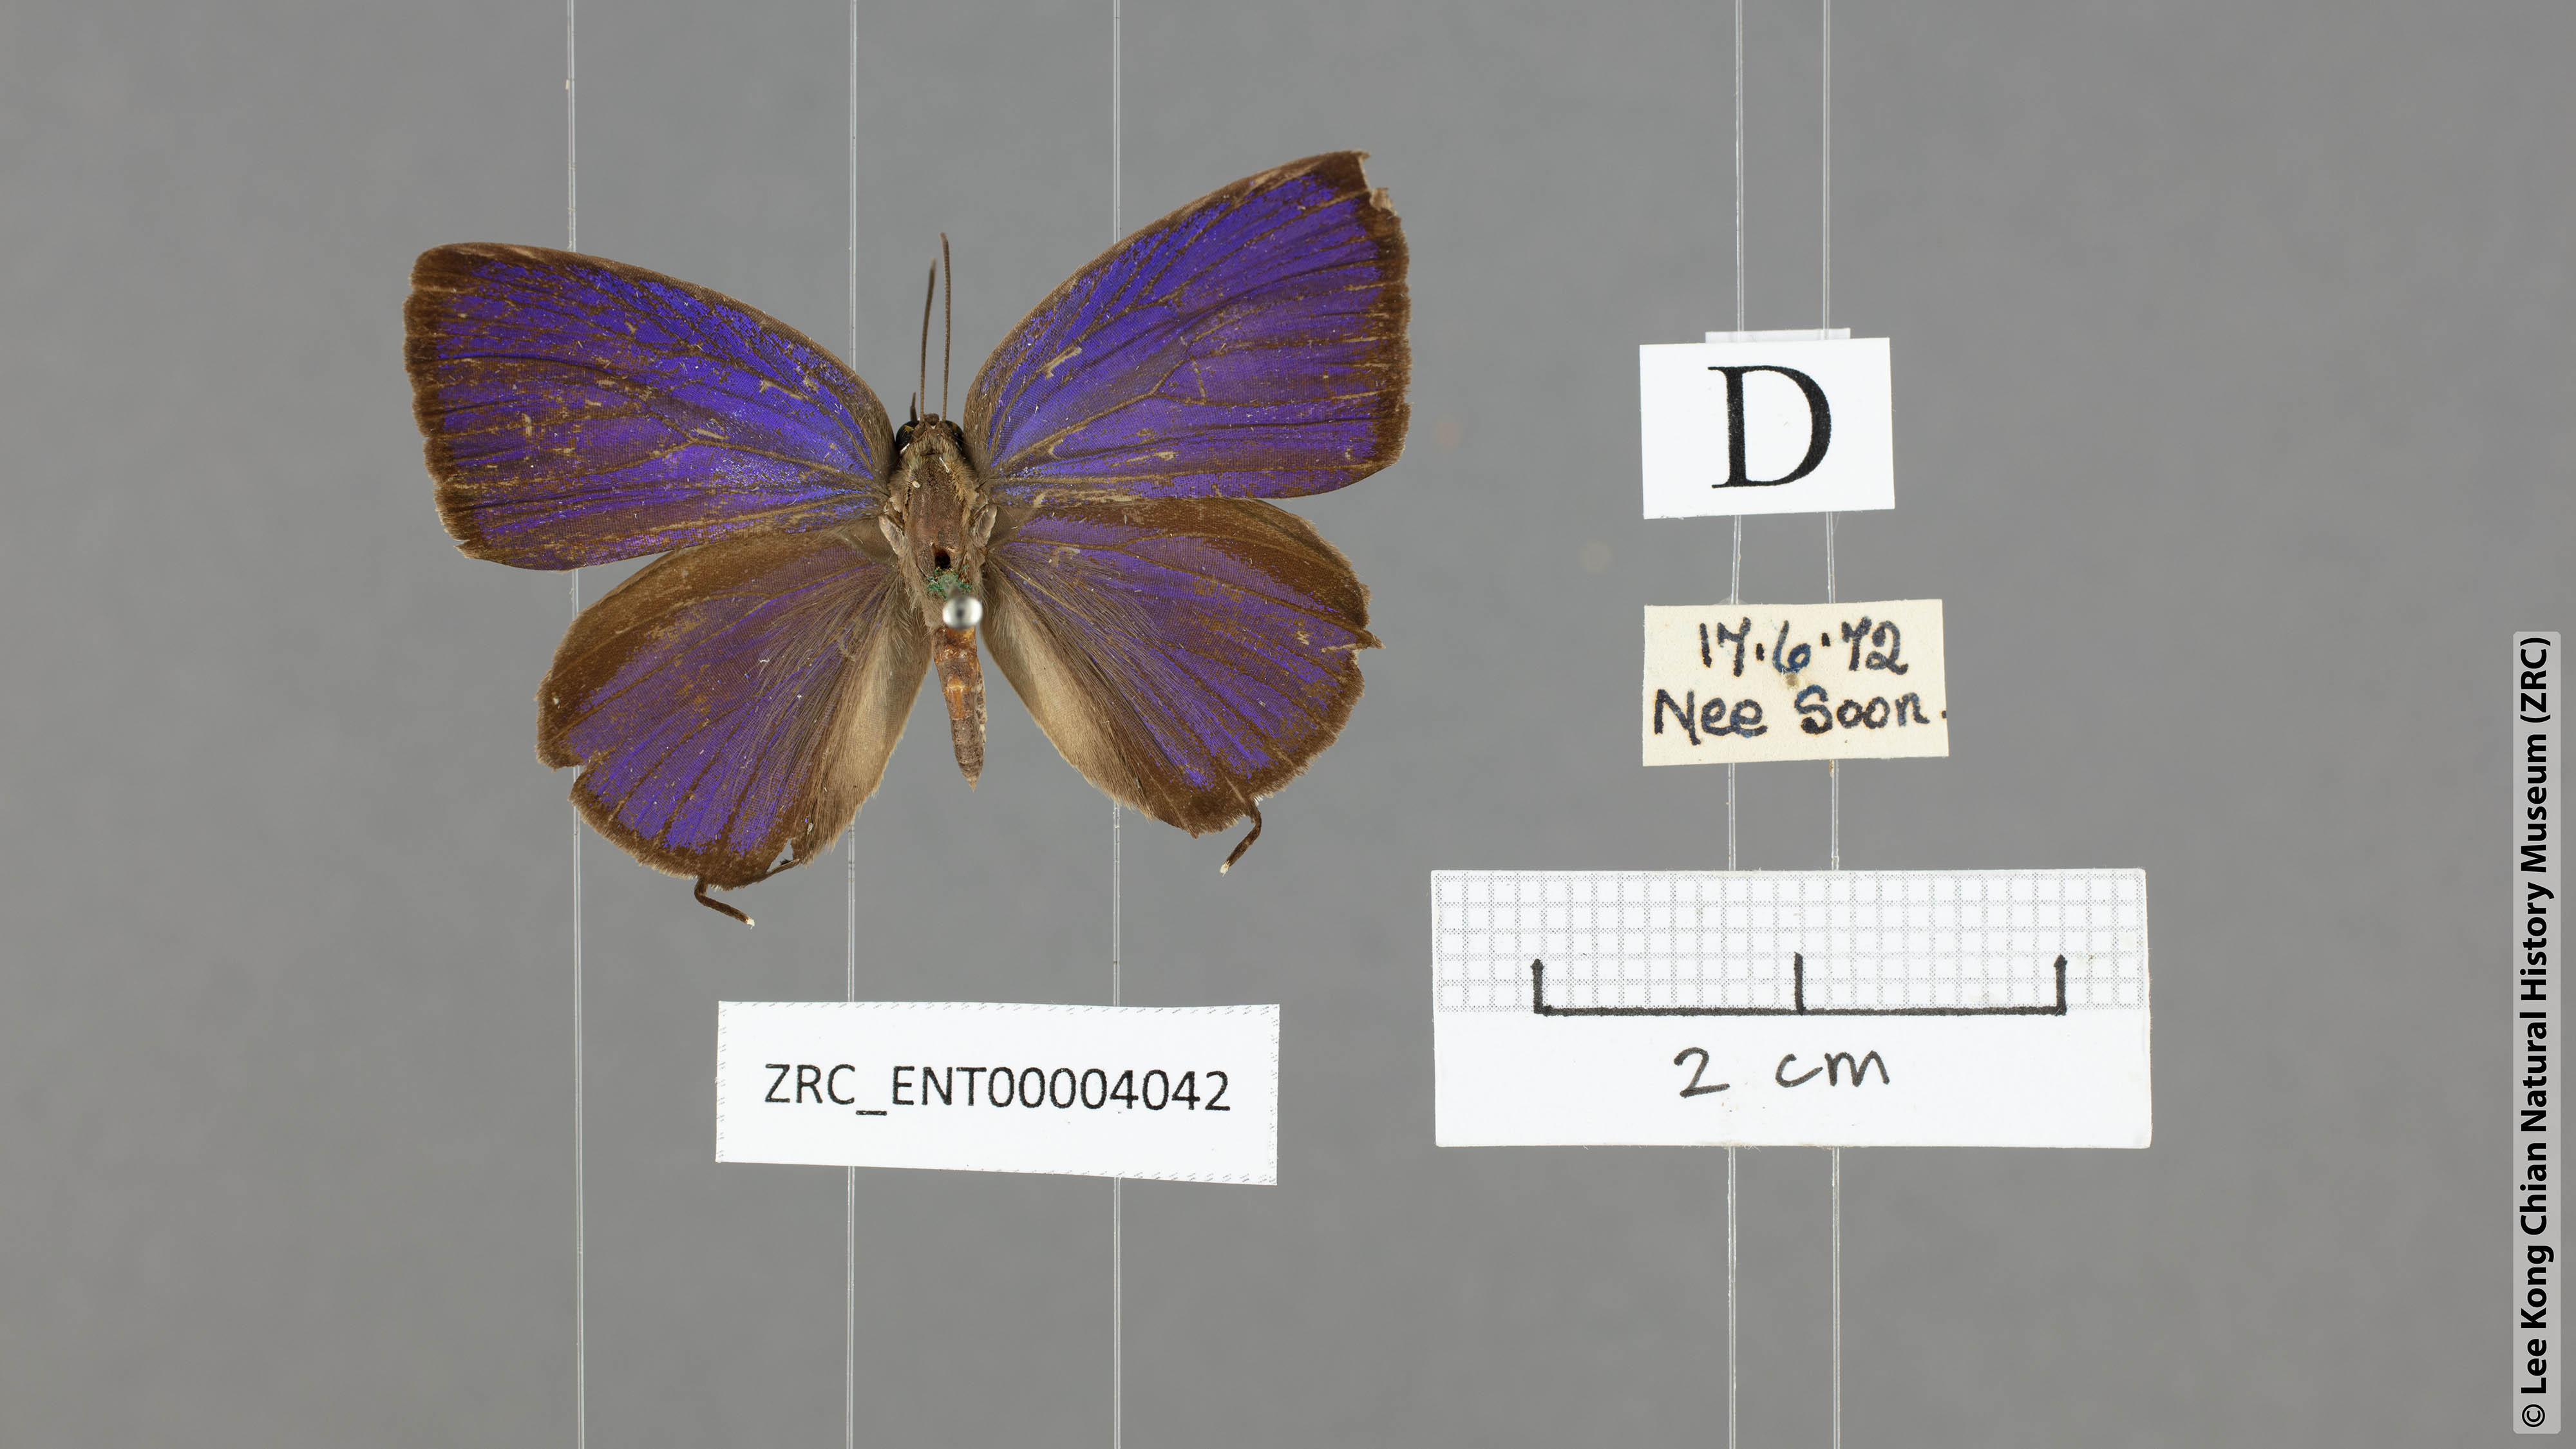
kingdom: Animalia
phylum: Arthropoda
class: Insecta
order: Lepidoptera
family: Lycaenidae
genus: Arhopala
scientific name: Arhopala pseudomuta
